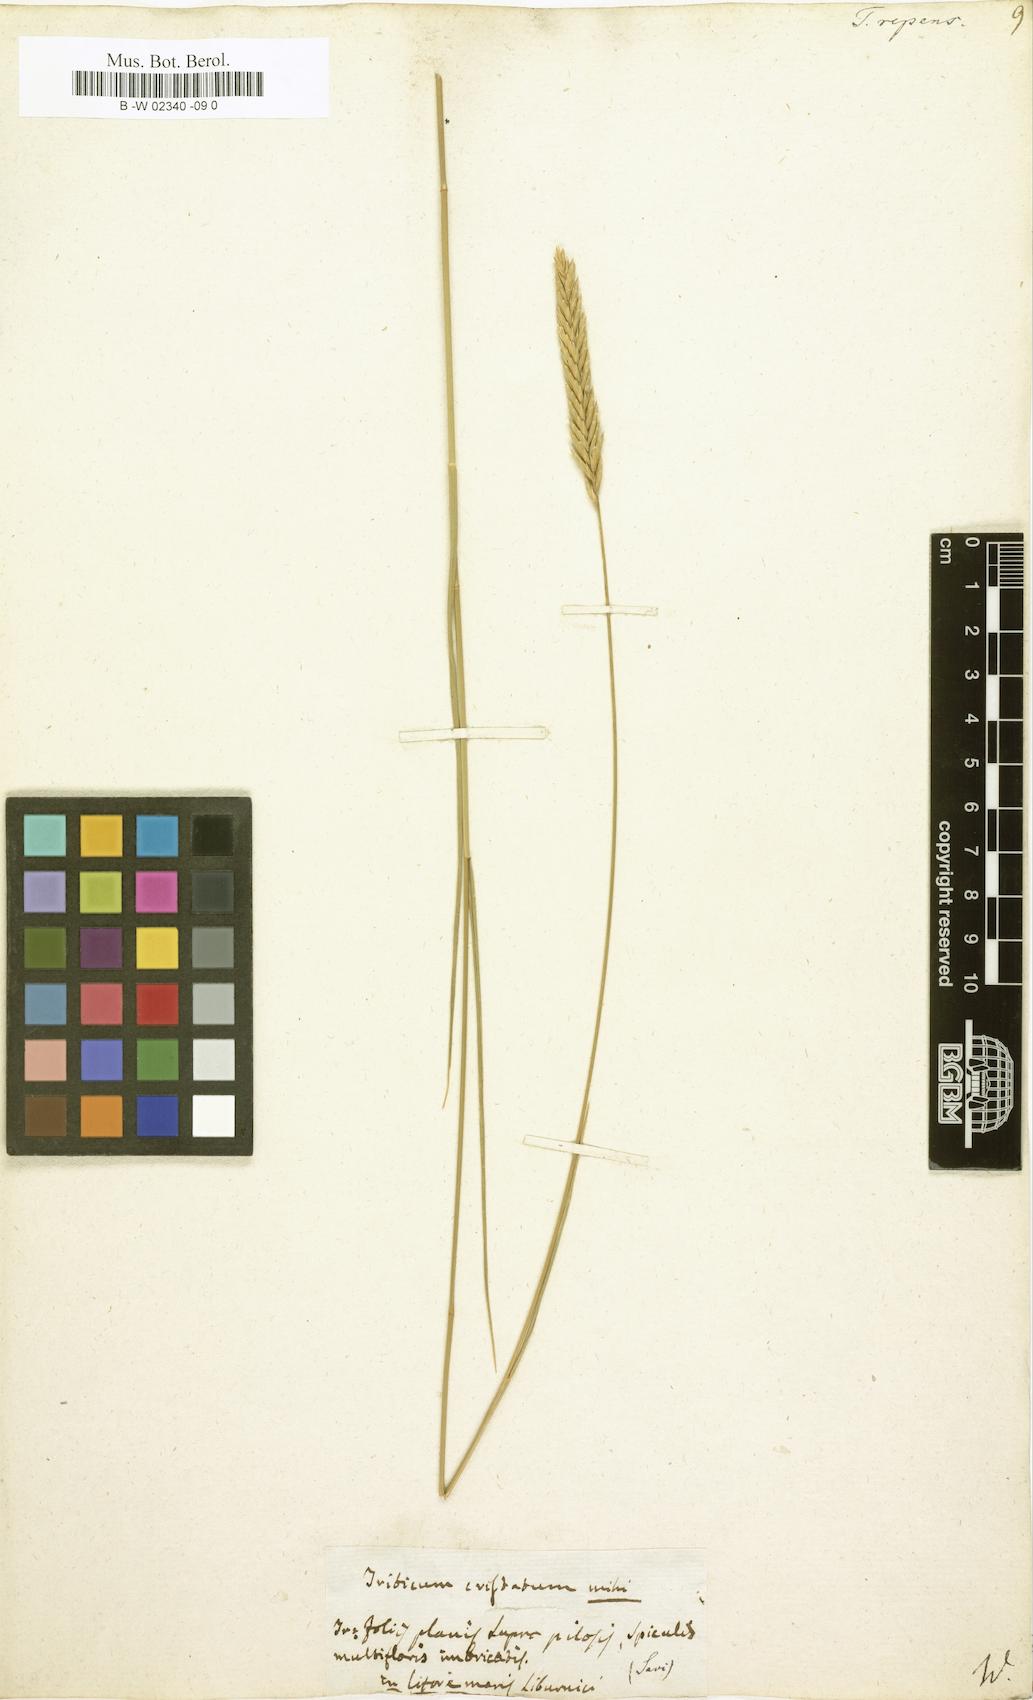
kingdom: Plantae
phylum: Tracheophyta
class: Liliopsida
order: Poales
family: Poaceae
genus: Elymus
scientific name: Elymus repens
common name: Quackgrass
